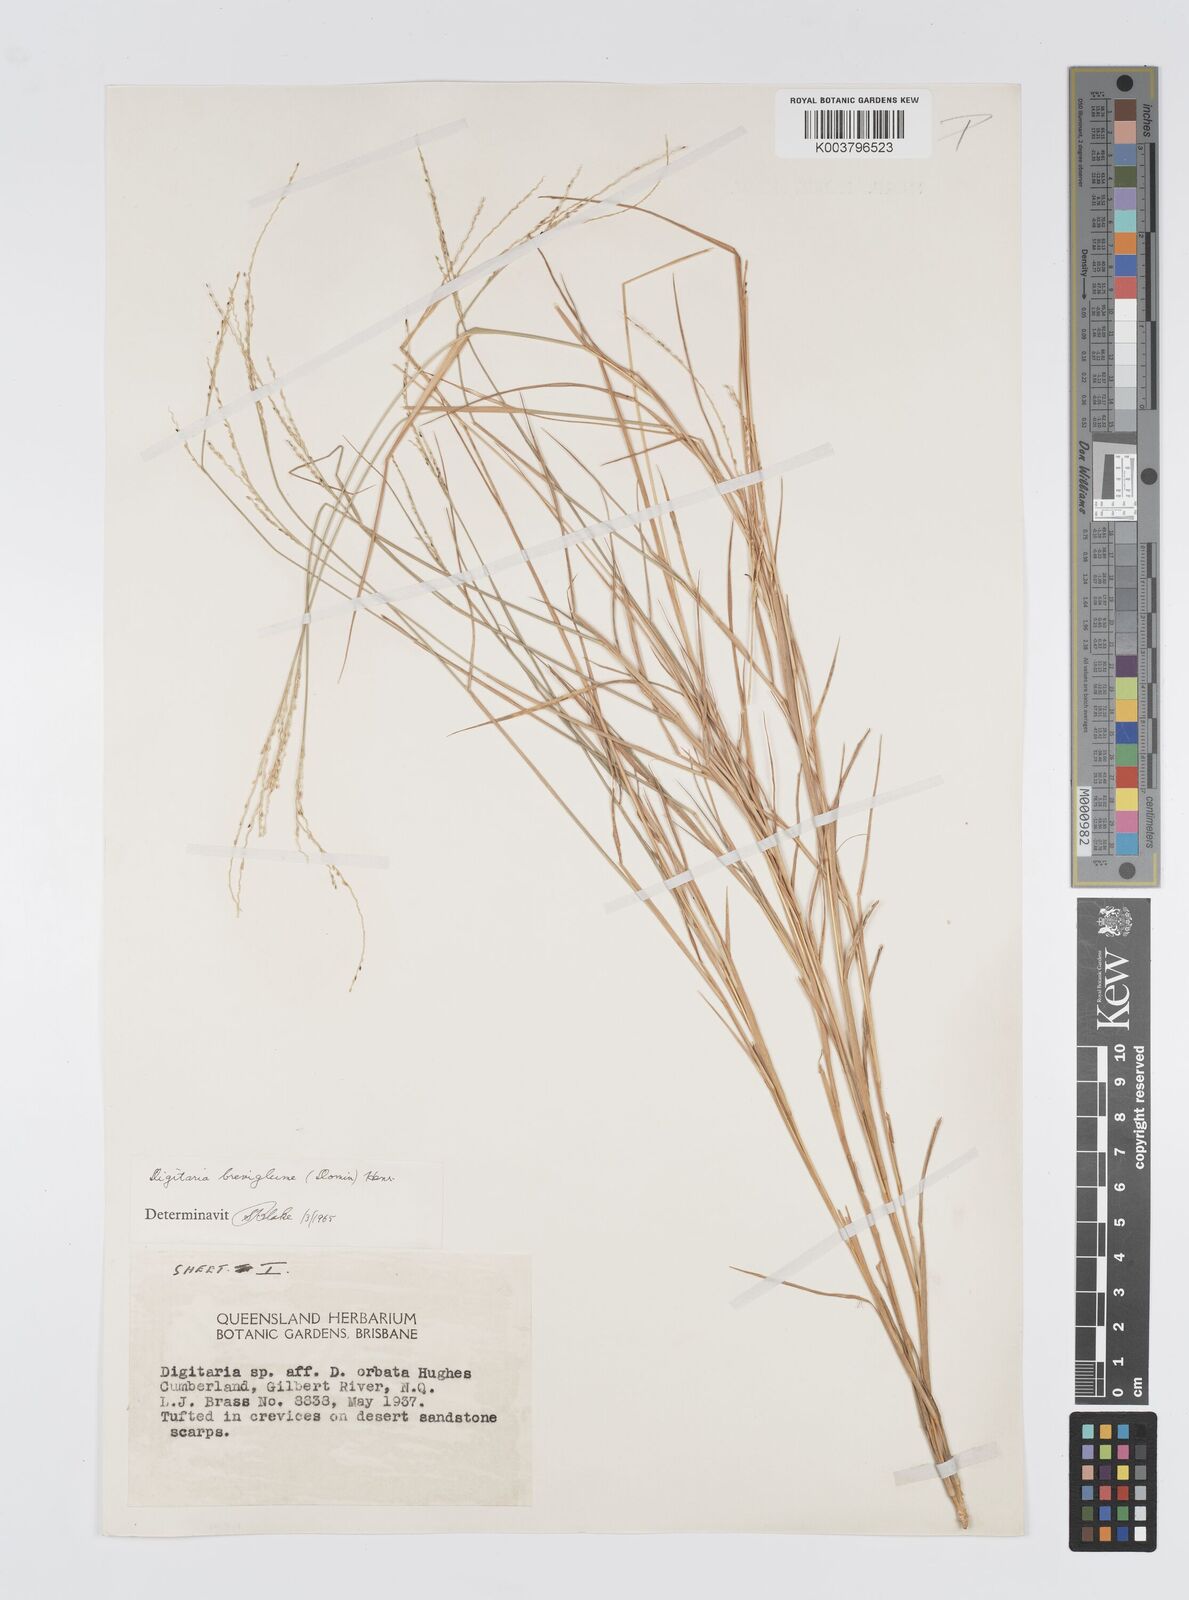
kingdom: Plantae
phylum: Tracheophyta
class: Liliopsida
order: Poales
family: Poaceae
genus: Digitaria
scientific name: Digitaria breviglumis
